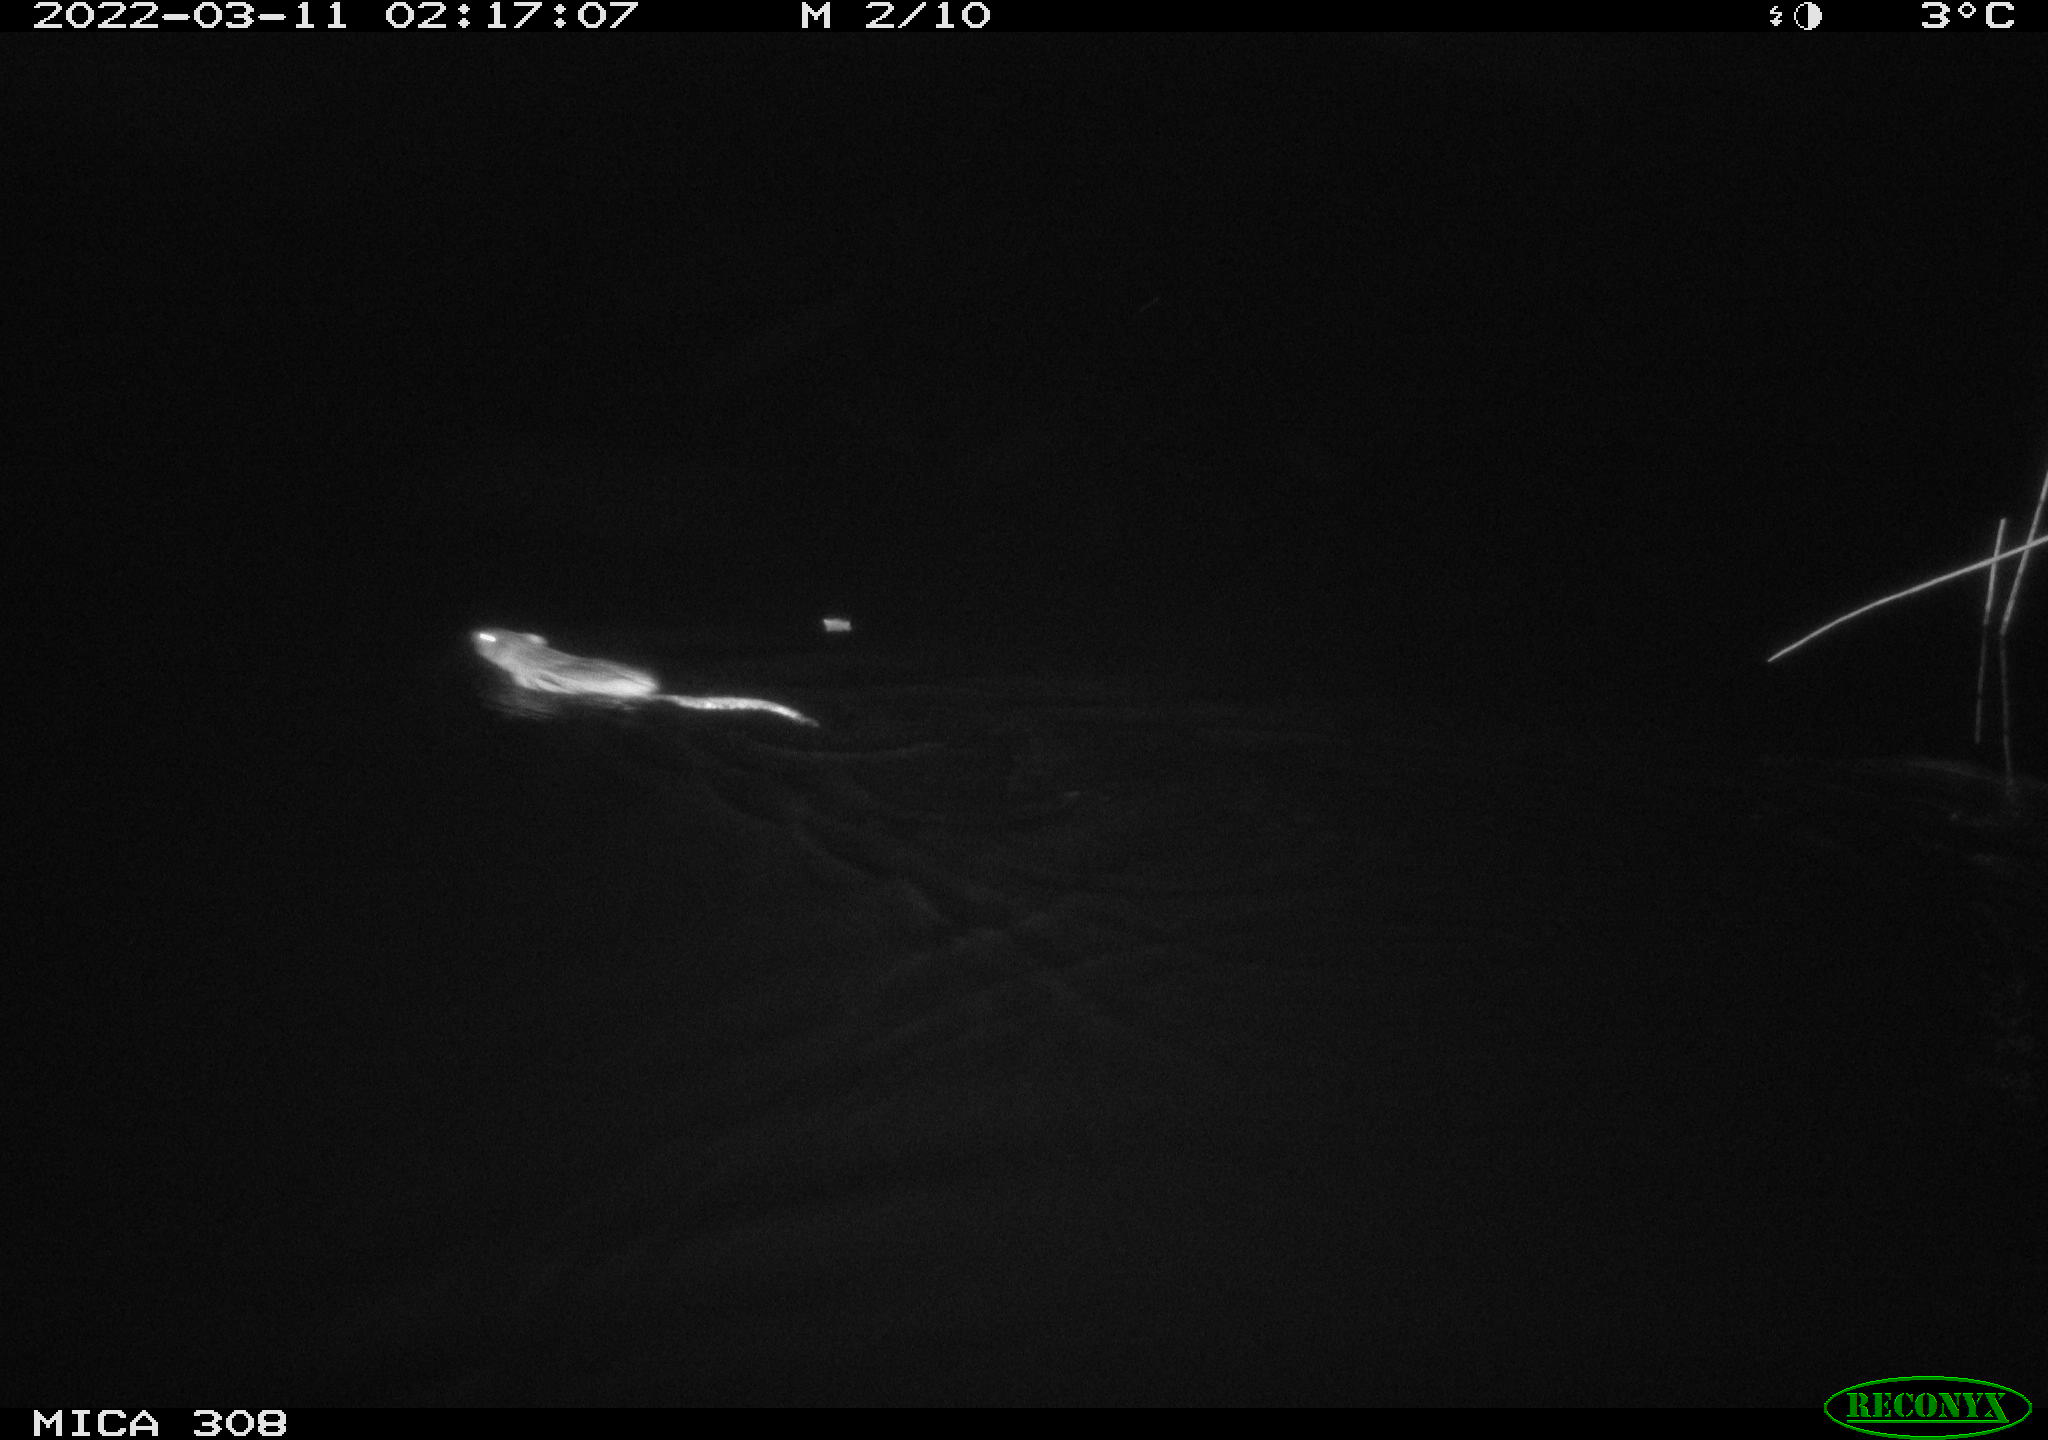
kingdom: Animalia
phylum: Chordata
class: Mammalia
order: Rodentia
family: Cricetidae
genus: Ondatra
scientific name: Ondatra zibethicus
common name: Muskrat
